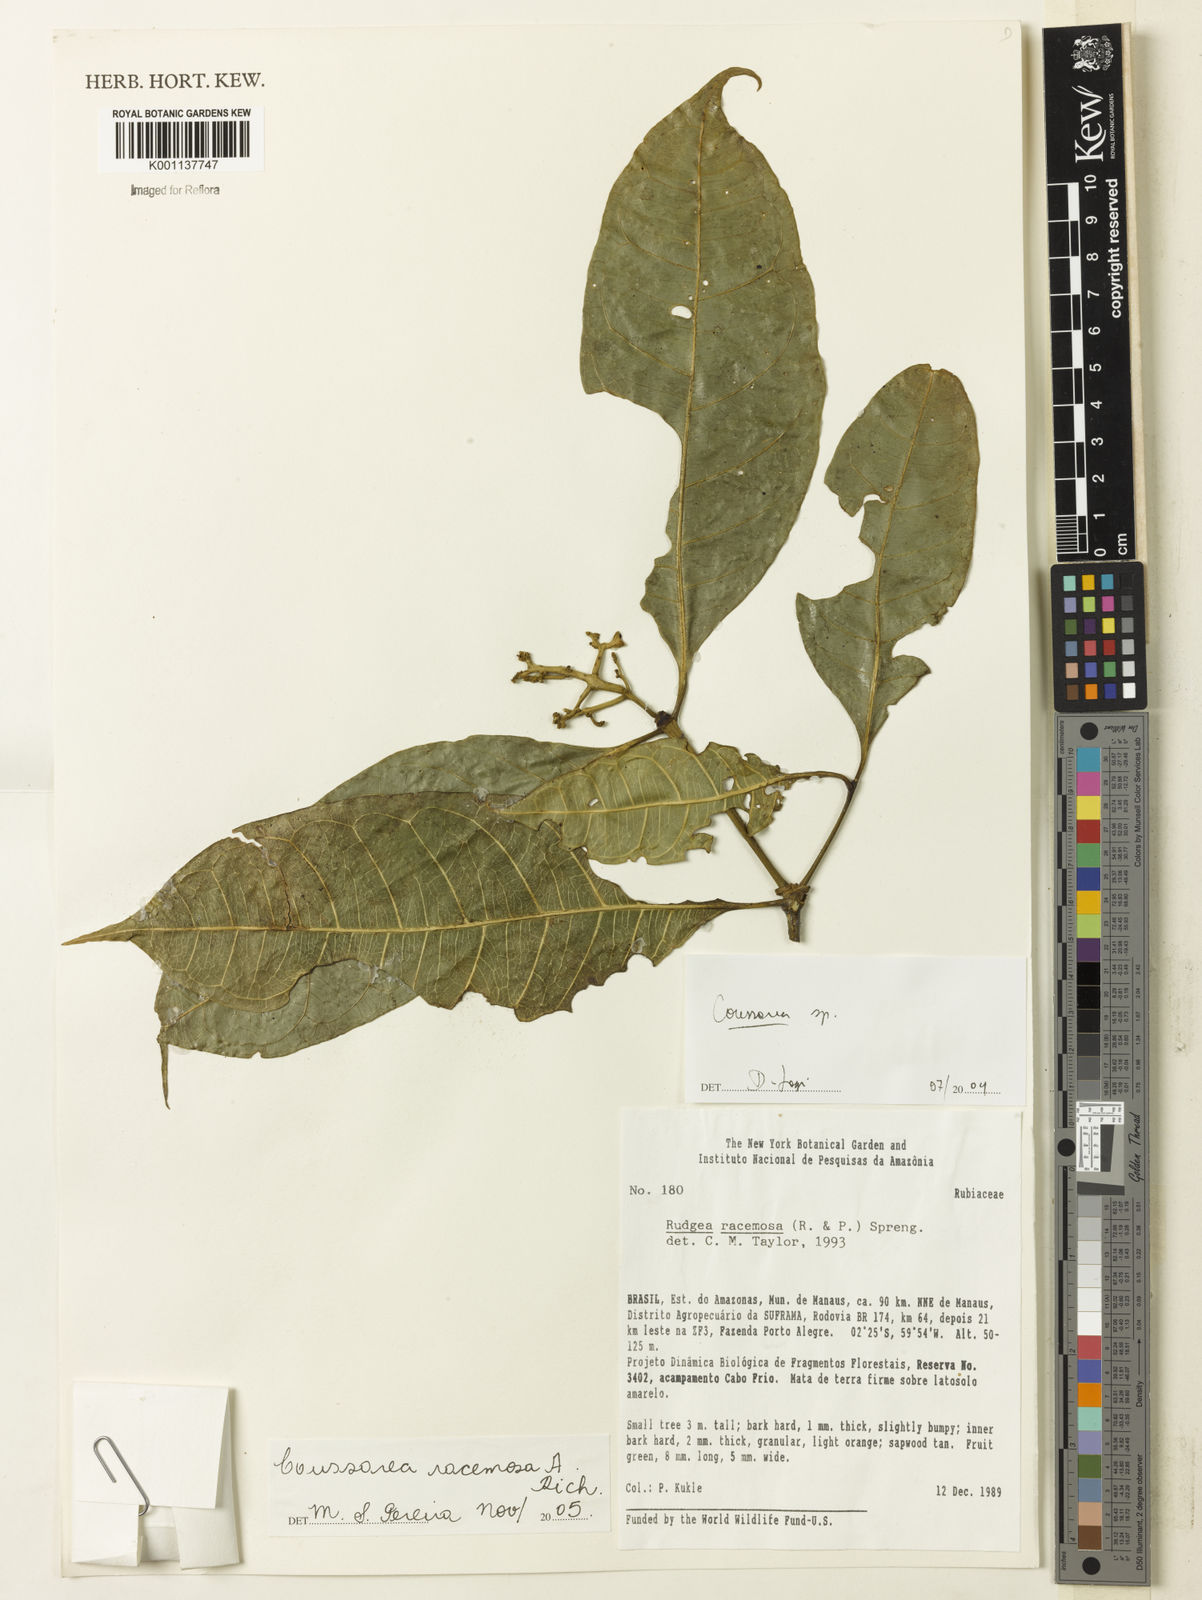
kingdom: Plantae
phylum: Tracheophyta
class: Magnoliopsida
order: Gentianales
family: Rubiaceae
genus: Coussarea
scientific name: Coussarea
